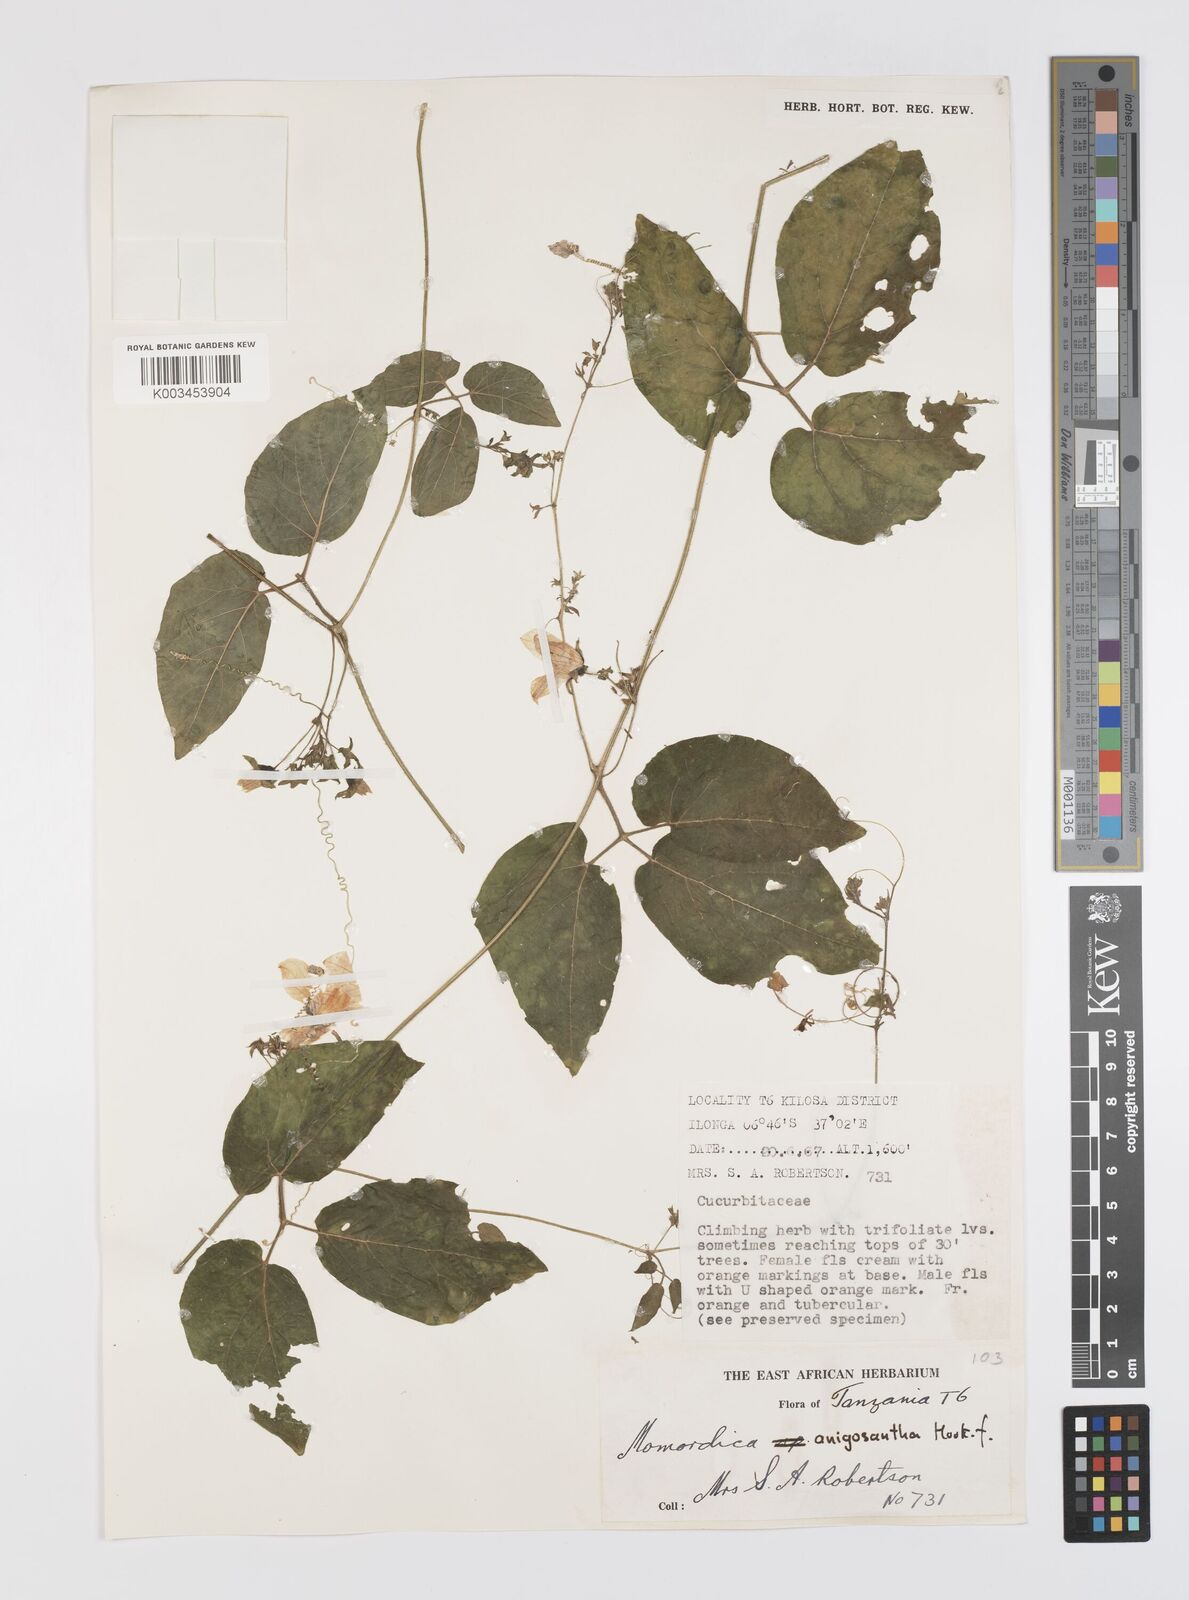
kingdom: Plantae
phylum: Tracheophyta
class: Magnoliopsida
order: Cucurbitales
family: Cucurbitaceae
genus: Momordica
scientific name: Momordica anigosantha
